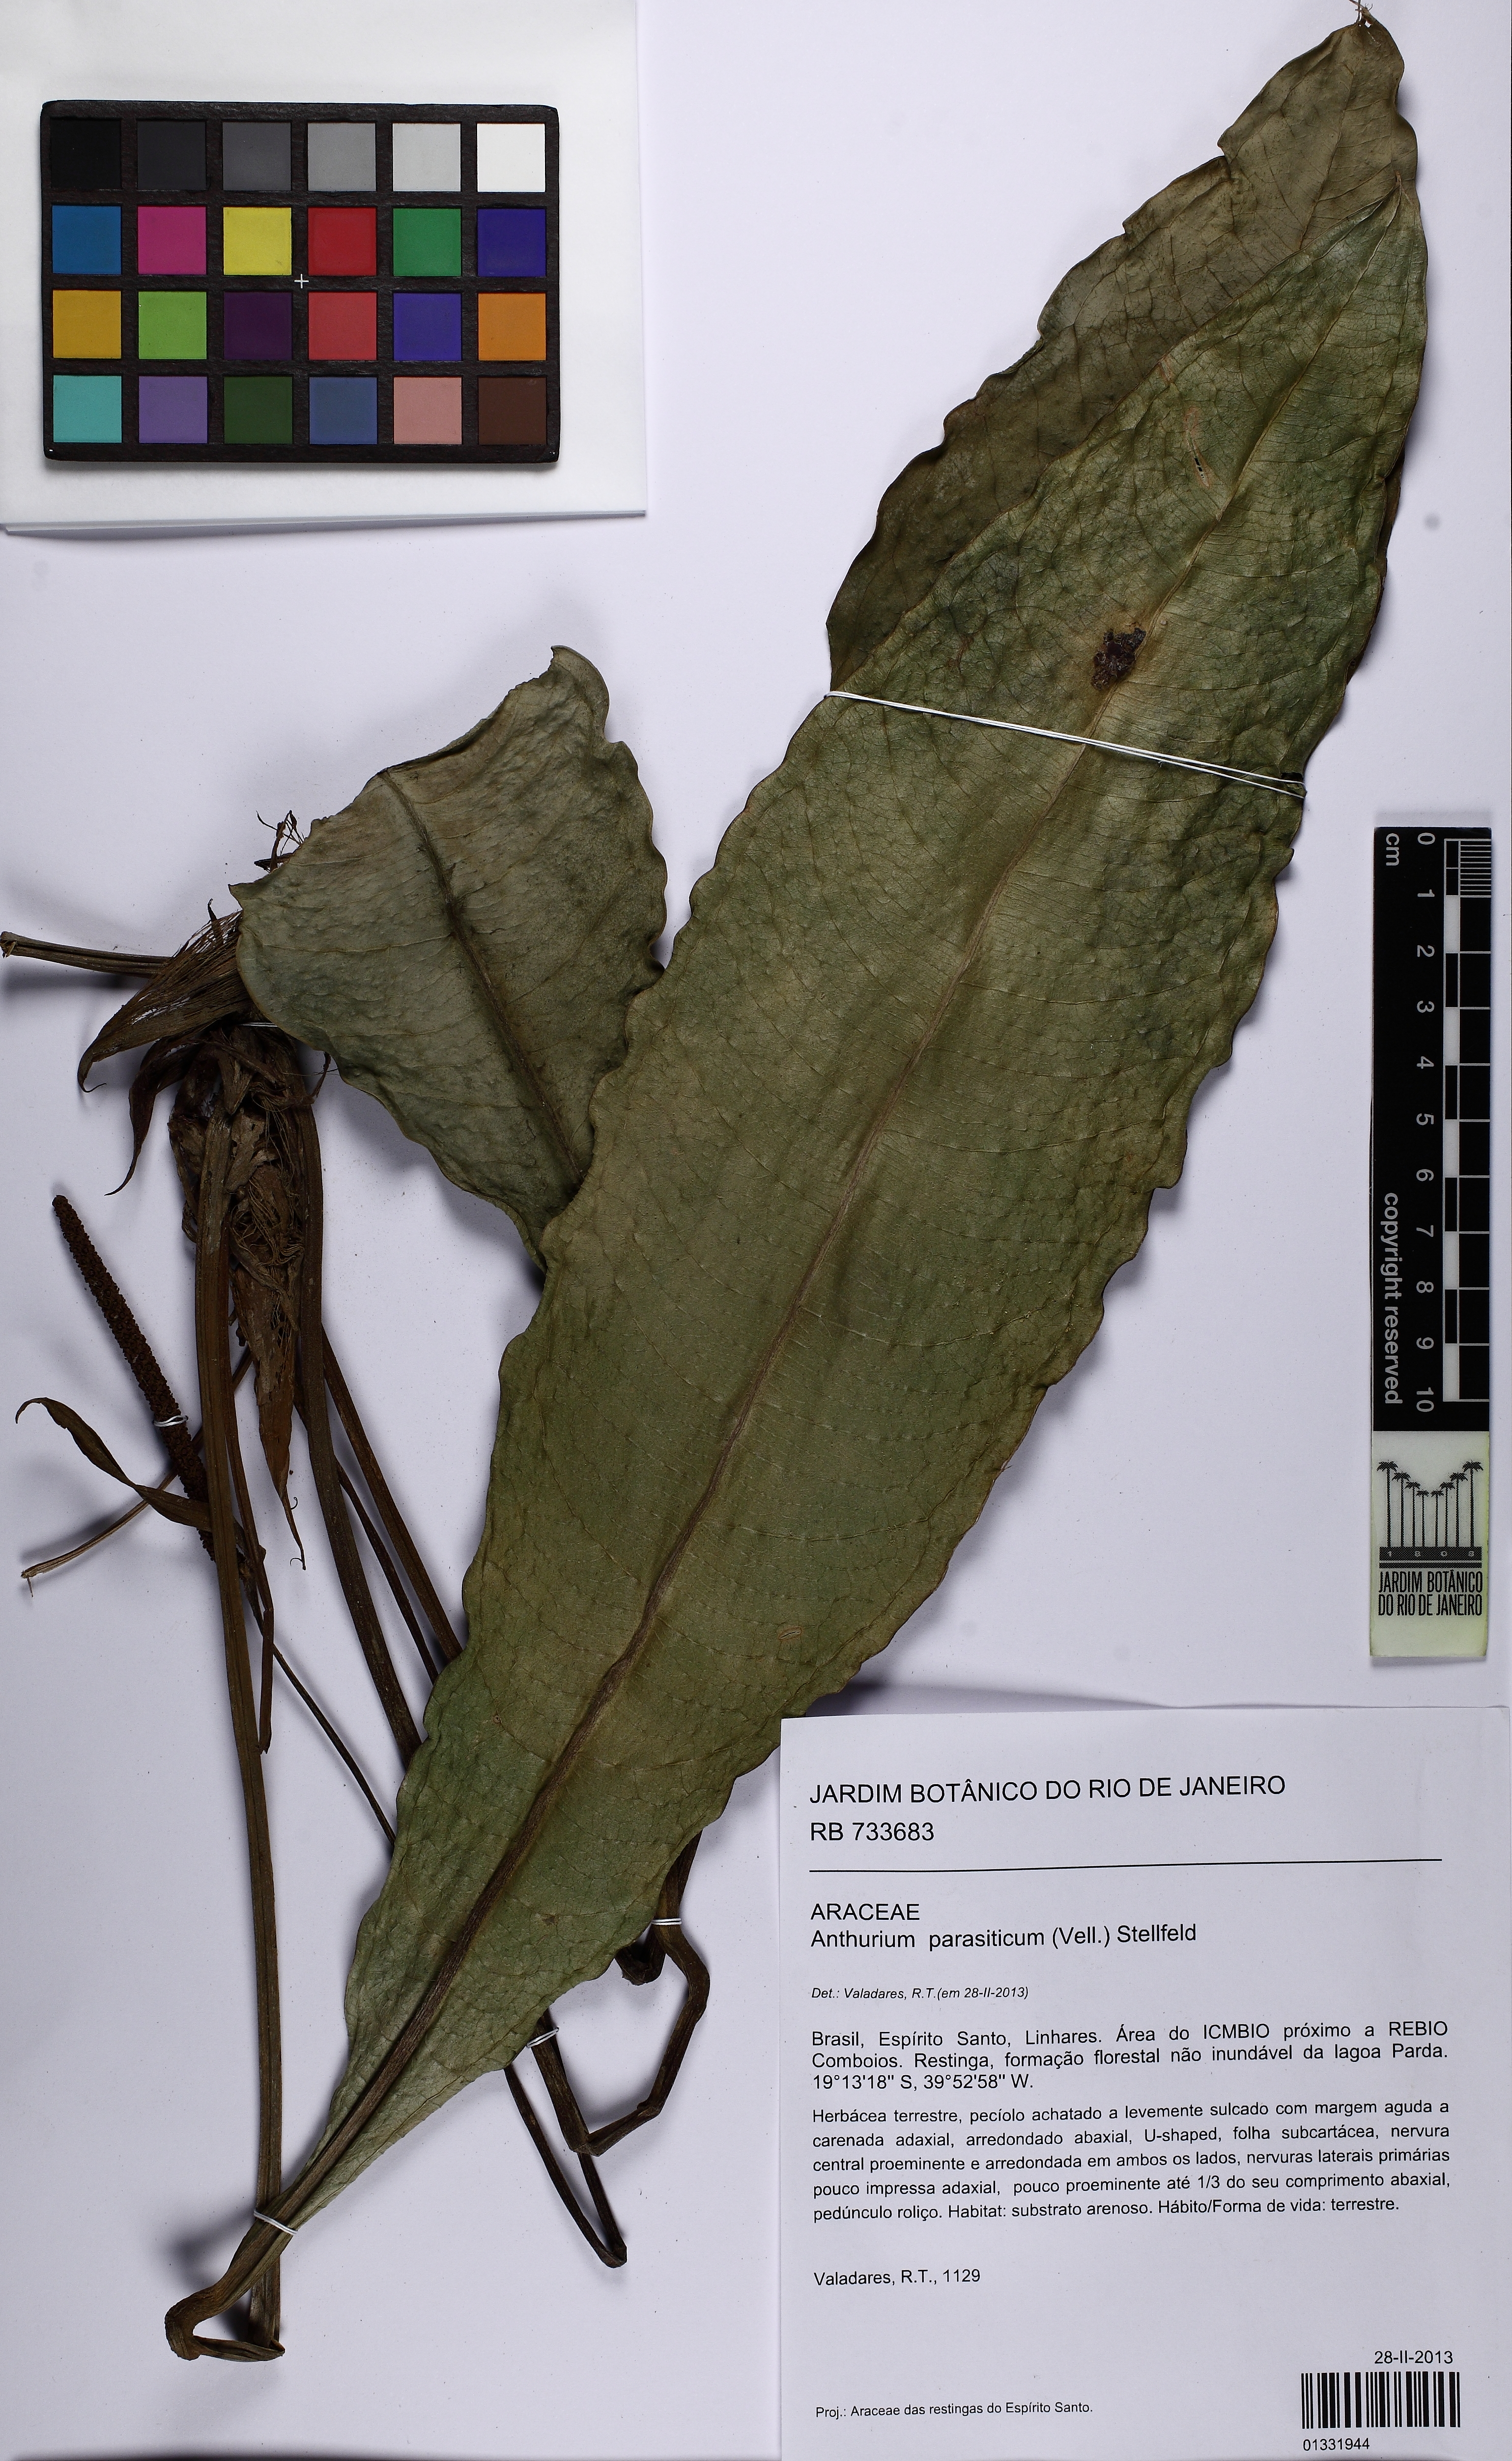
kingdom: Plantae
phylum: Tracheophyta
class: Liliopsida
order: Alismatales
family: Araceae
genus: Anthurium
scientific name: Anthurium parasiticum
